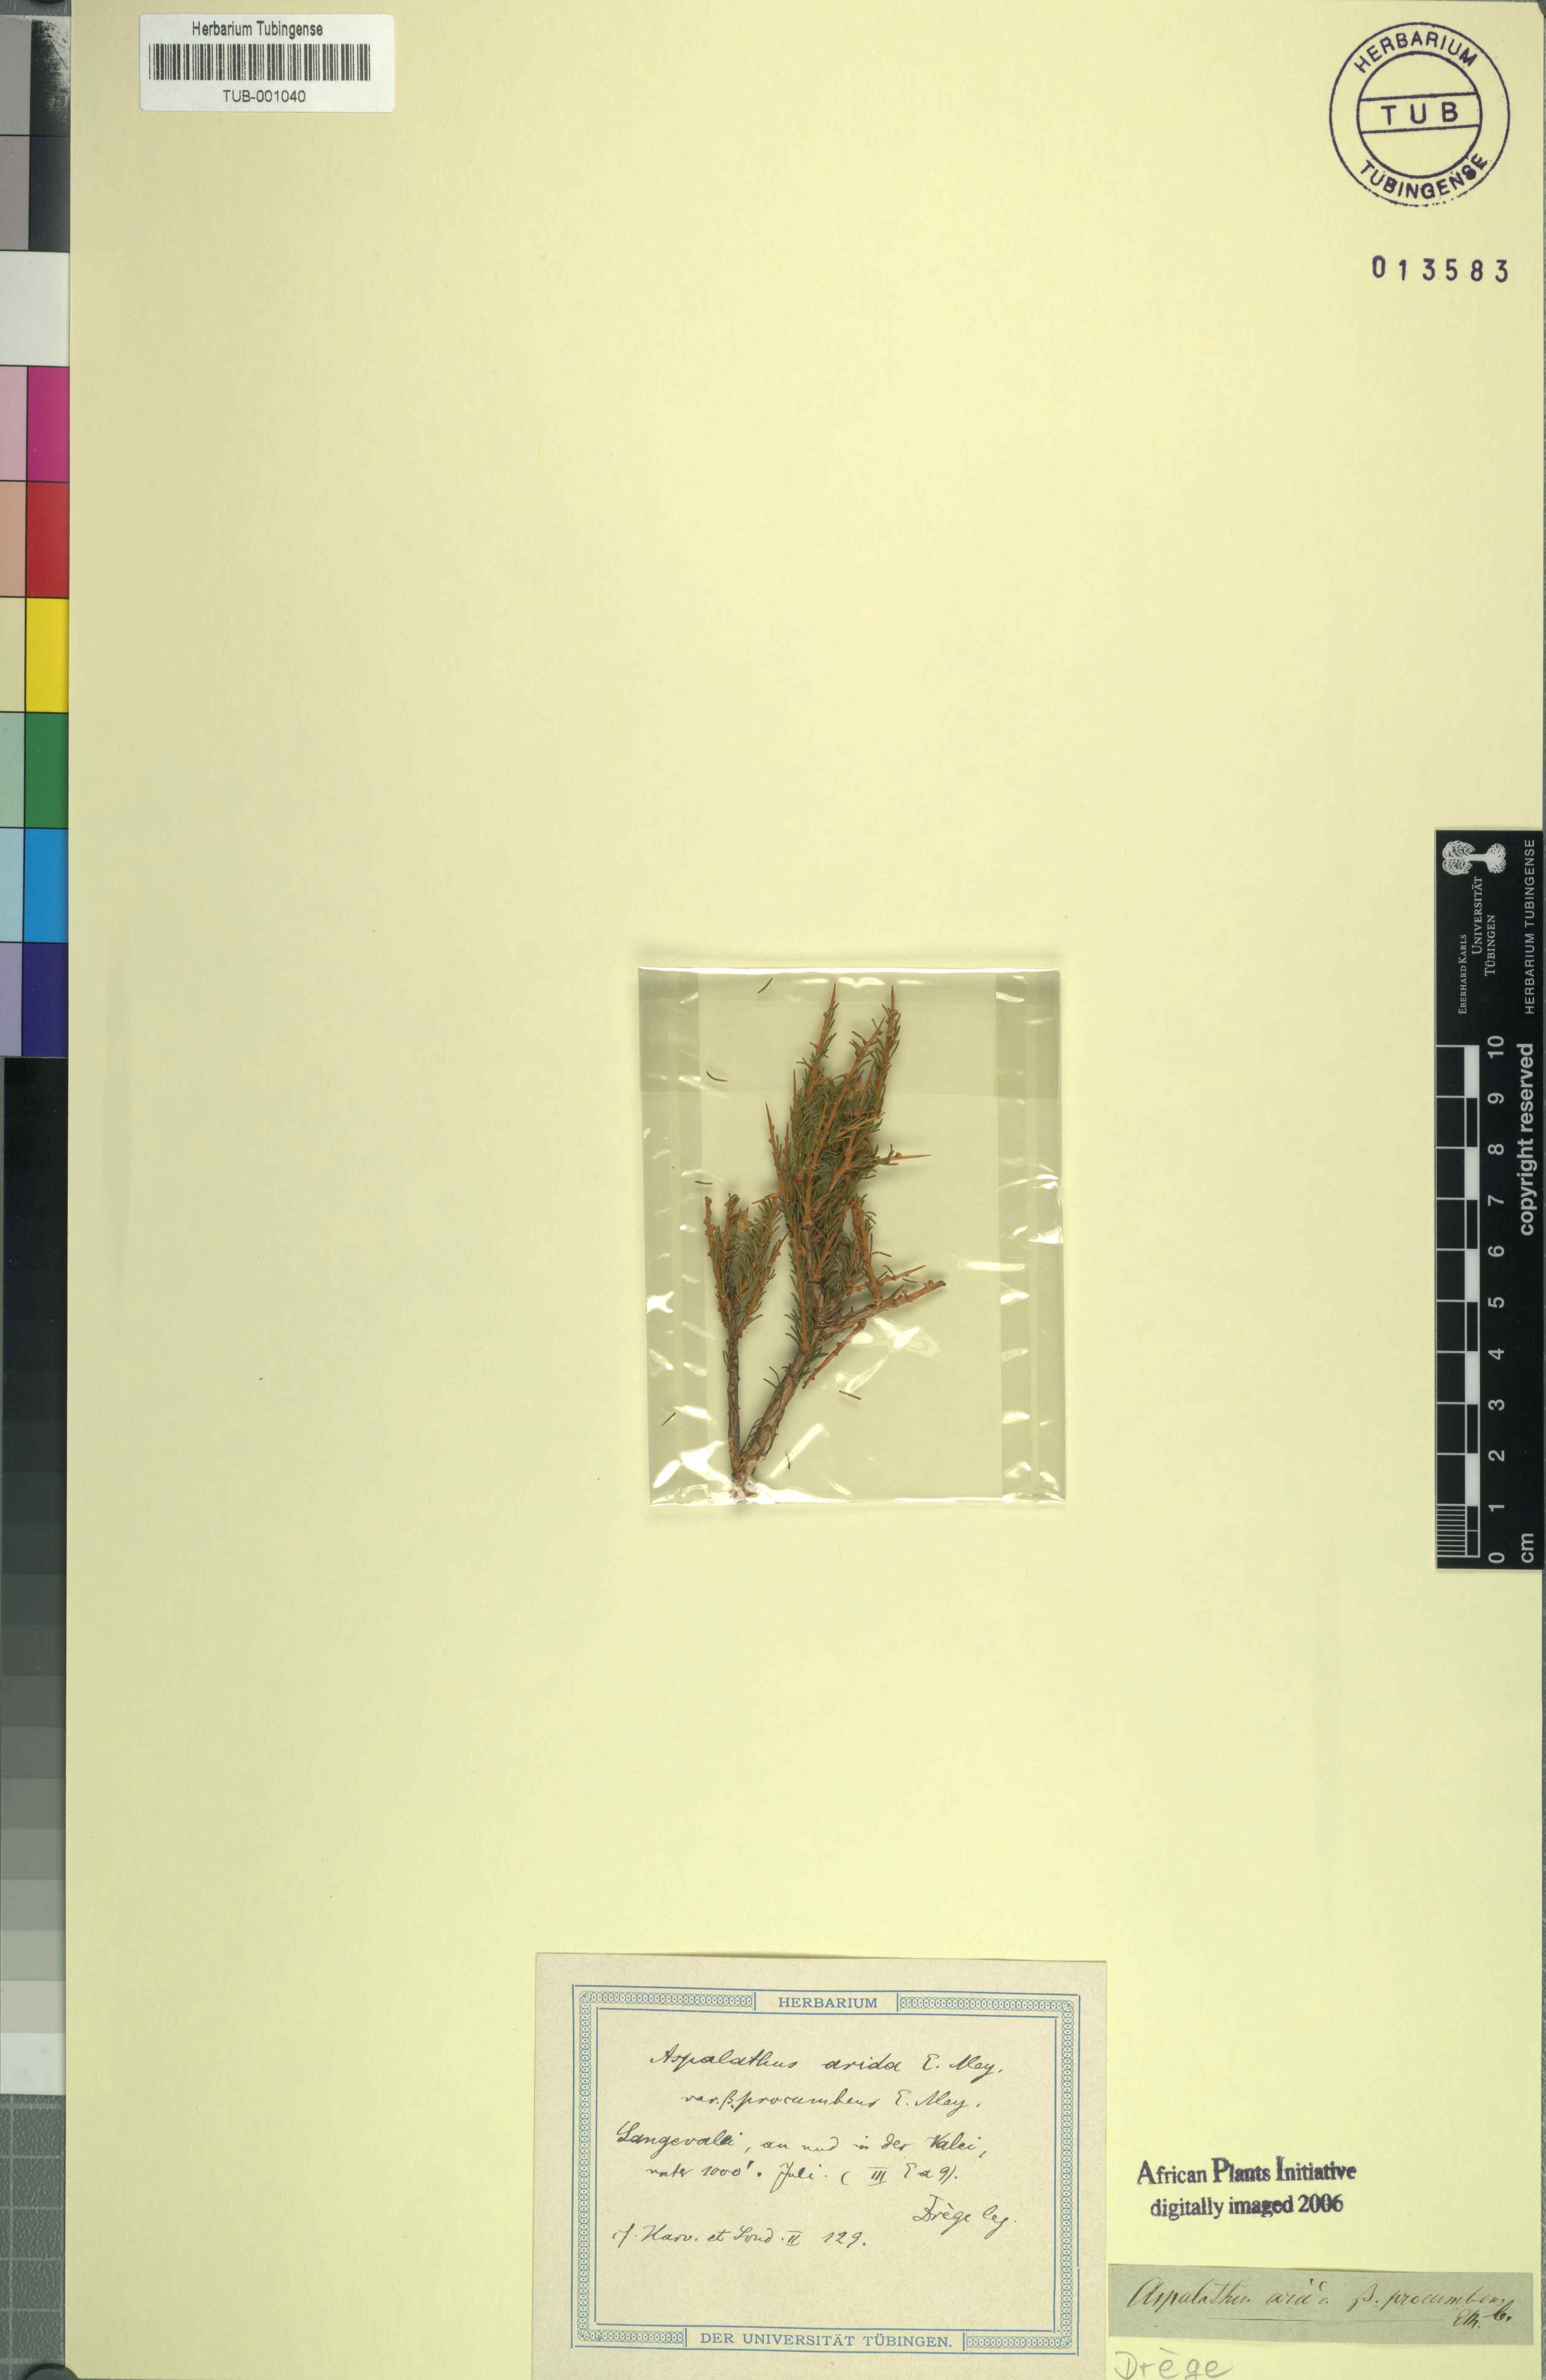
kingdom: Plantae
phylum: Tracheophyta
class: Magnoliopsida
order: Fabales
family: Fabaceae
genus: Aspalathus
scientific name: Aspalathus arida
